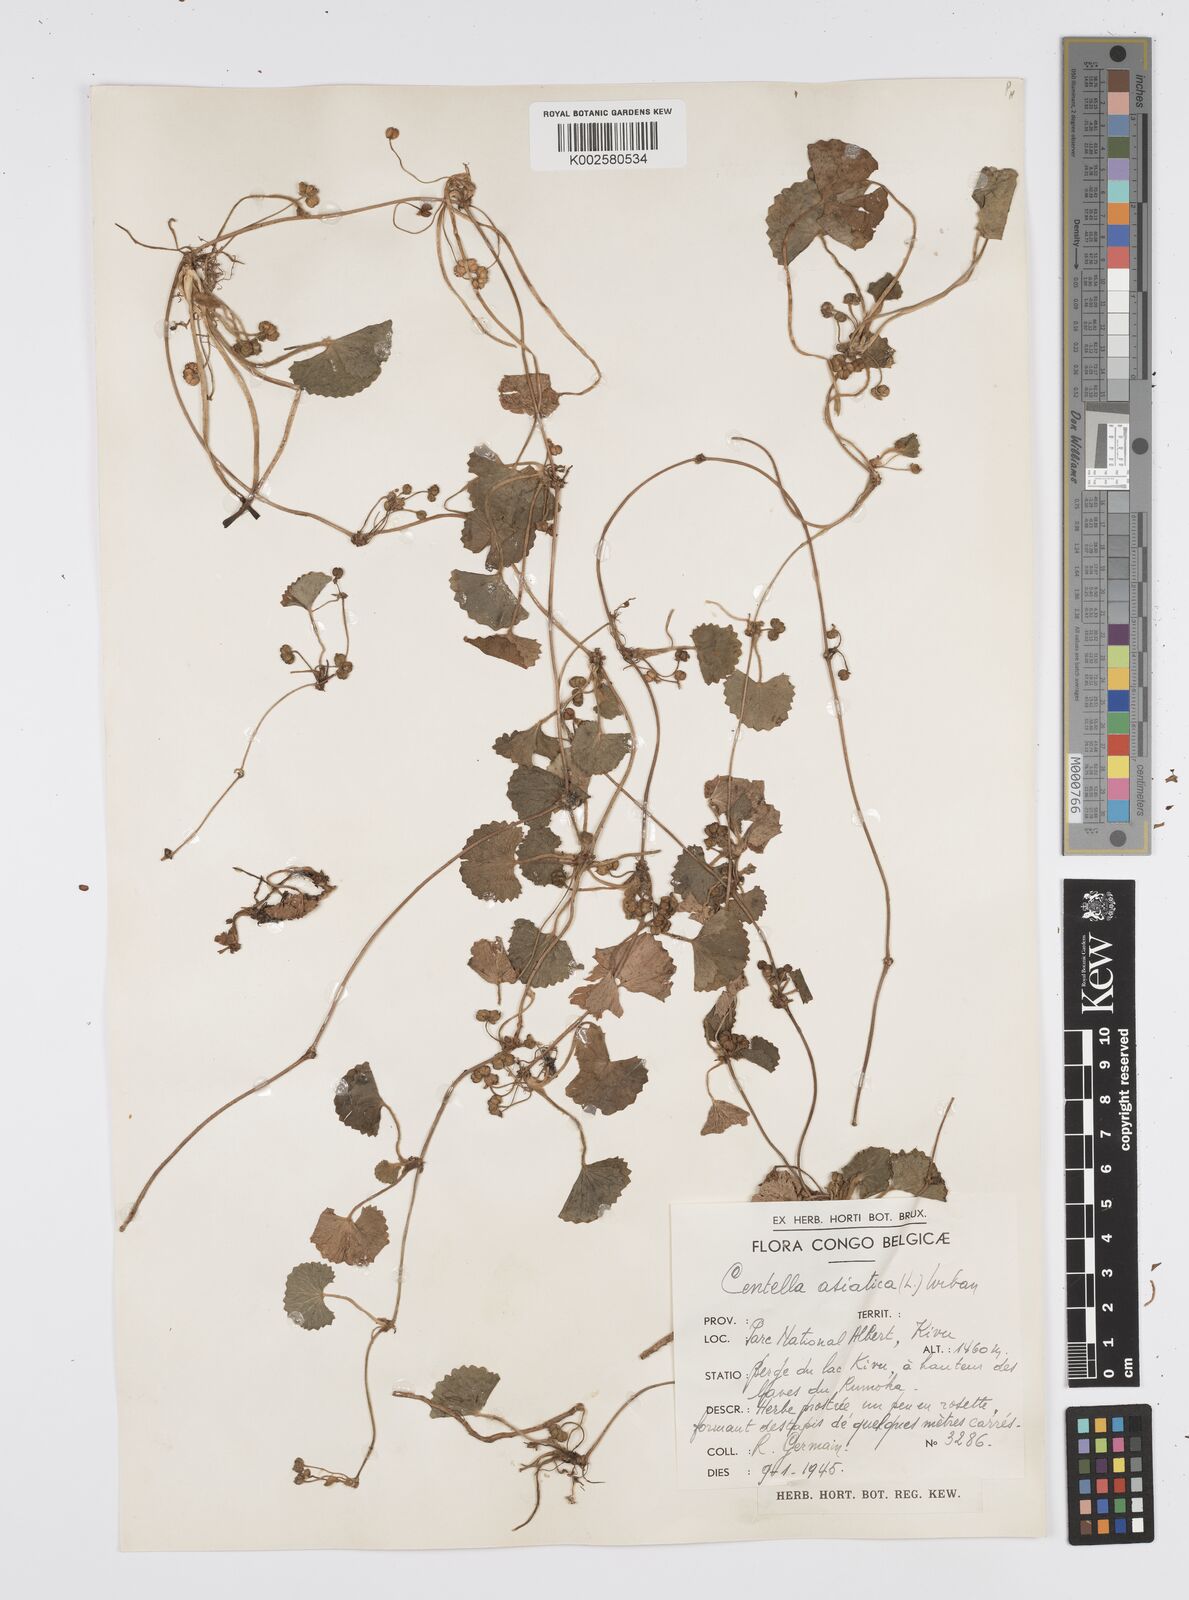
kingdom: Plantae
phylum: Tracheophyta
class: Magnoliopsida
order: Apiales
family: Apiaceae
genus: Centella
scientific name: Centella asiatica
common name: Spadeleaf
